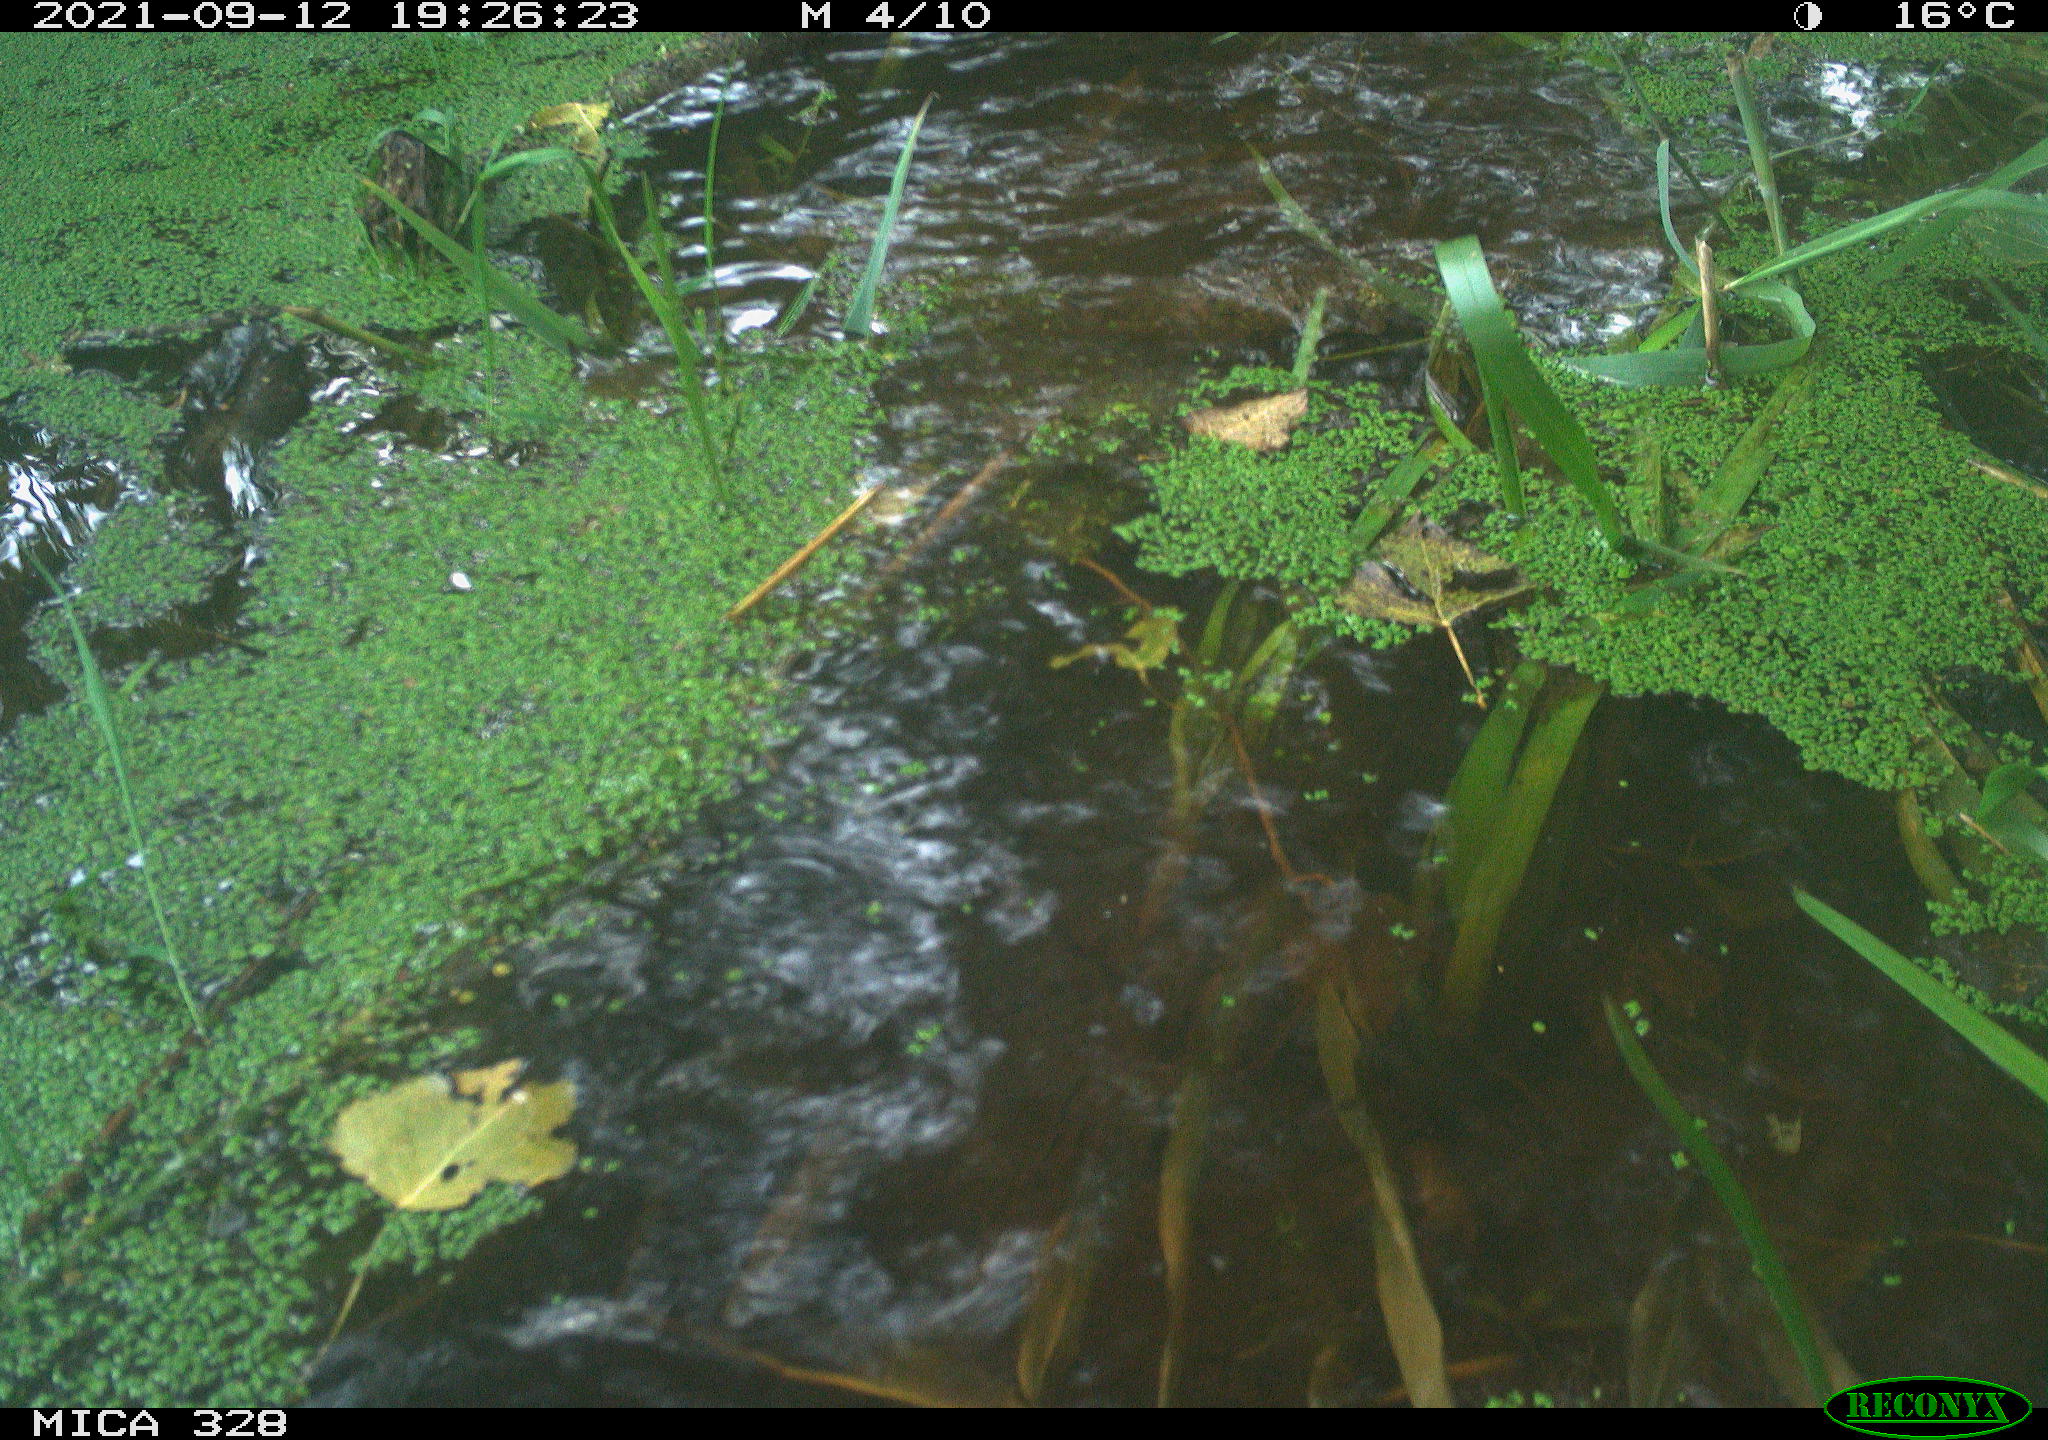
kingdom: Animalia
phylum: Chordata
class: Mammalia
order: Rodentia
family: Cricetidae
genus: Ondatra
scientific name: Ondatra zibethicus
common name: Muskrat
